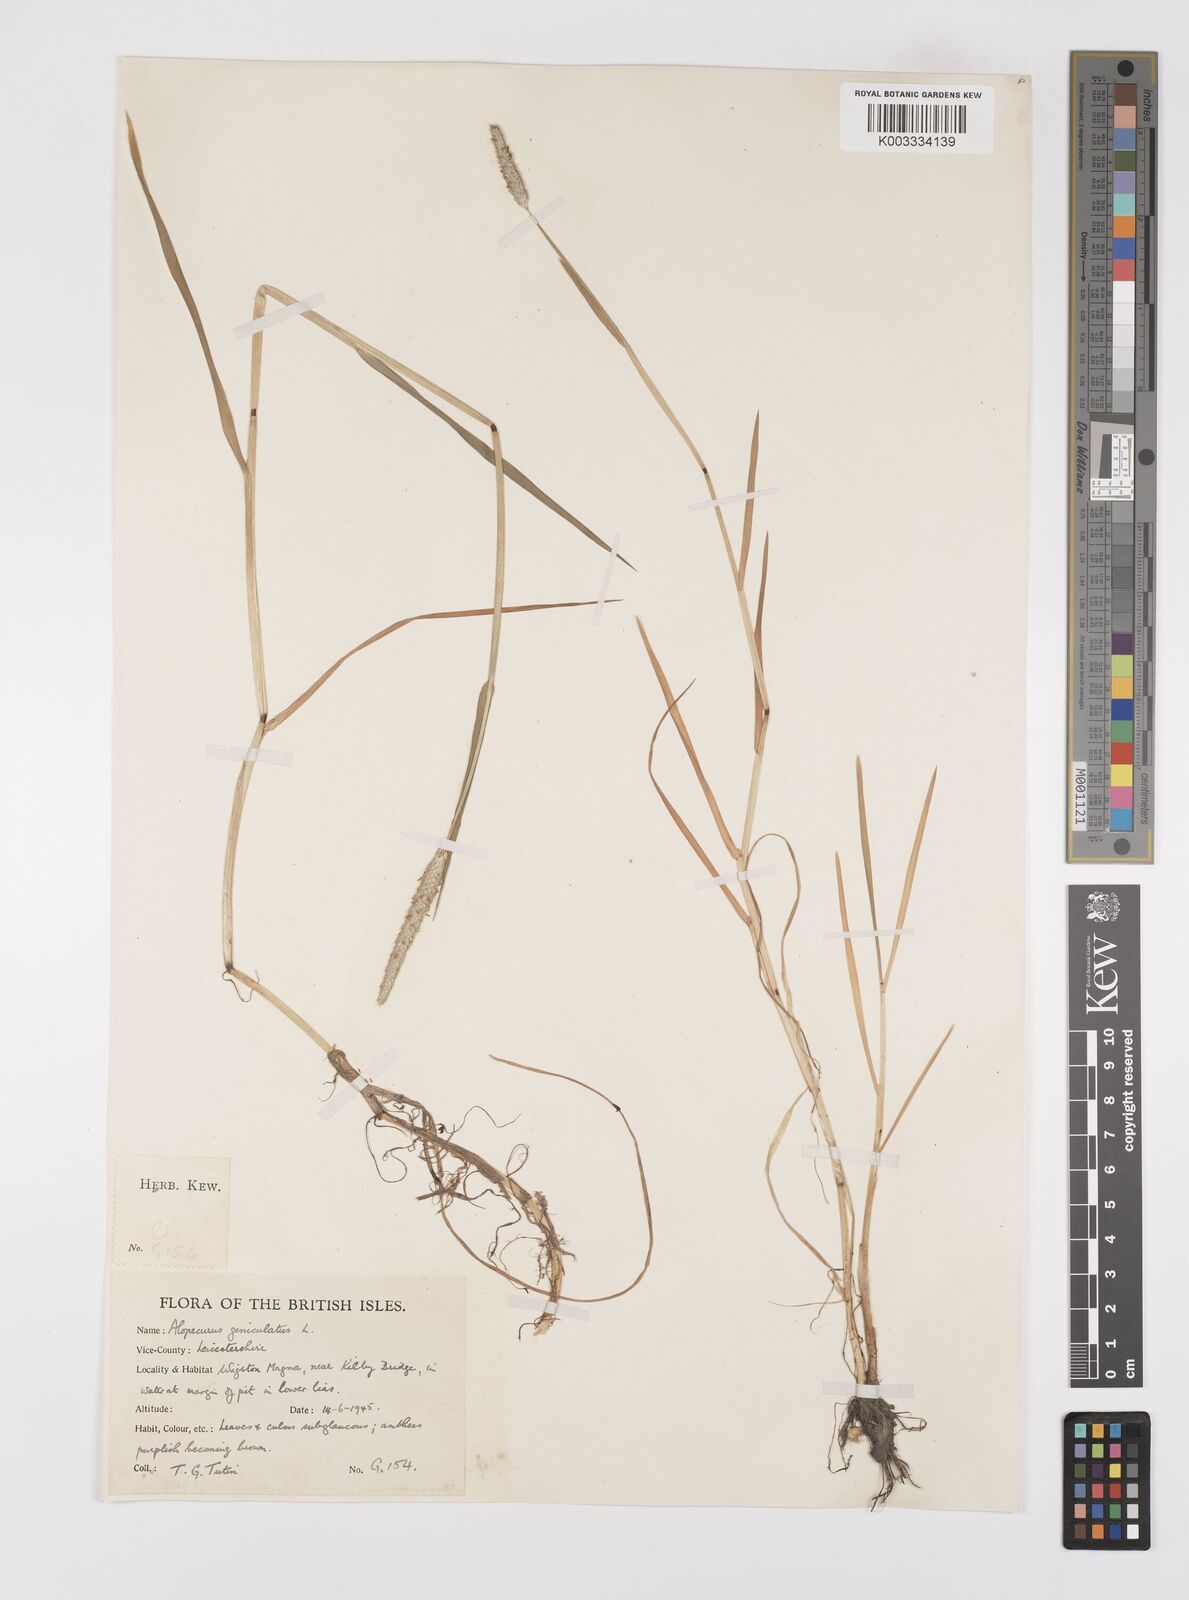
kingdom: Plantae
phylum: Tracheophyta
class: Liliopsida
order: Poales
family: Poaceae
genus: Alopecurus
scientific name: Alopecurus geniculatus
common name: Water foxtail
